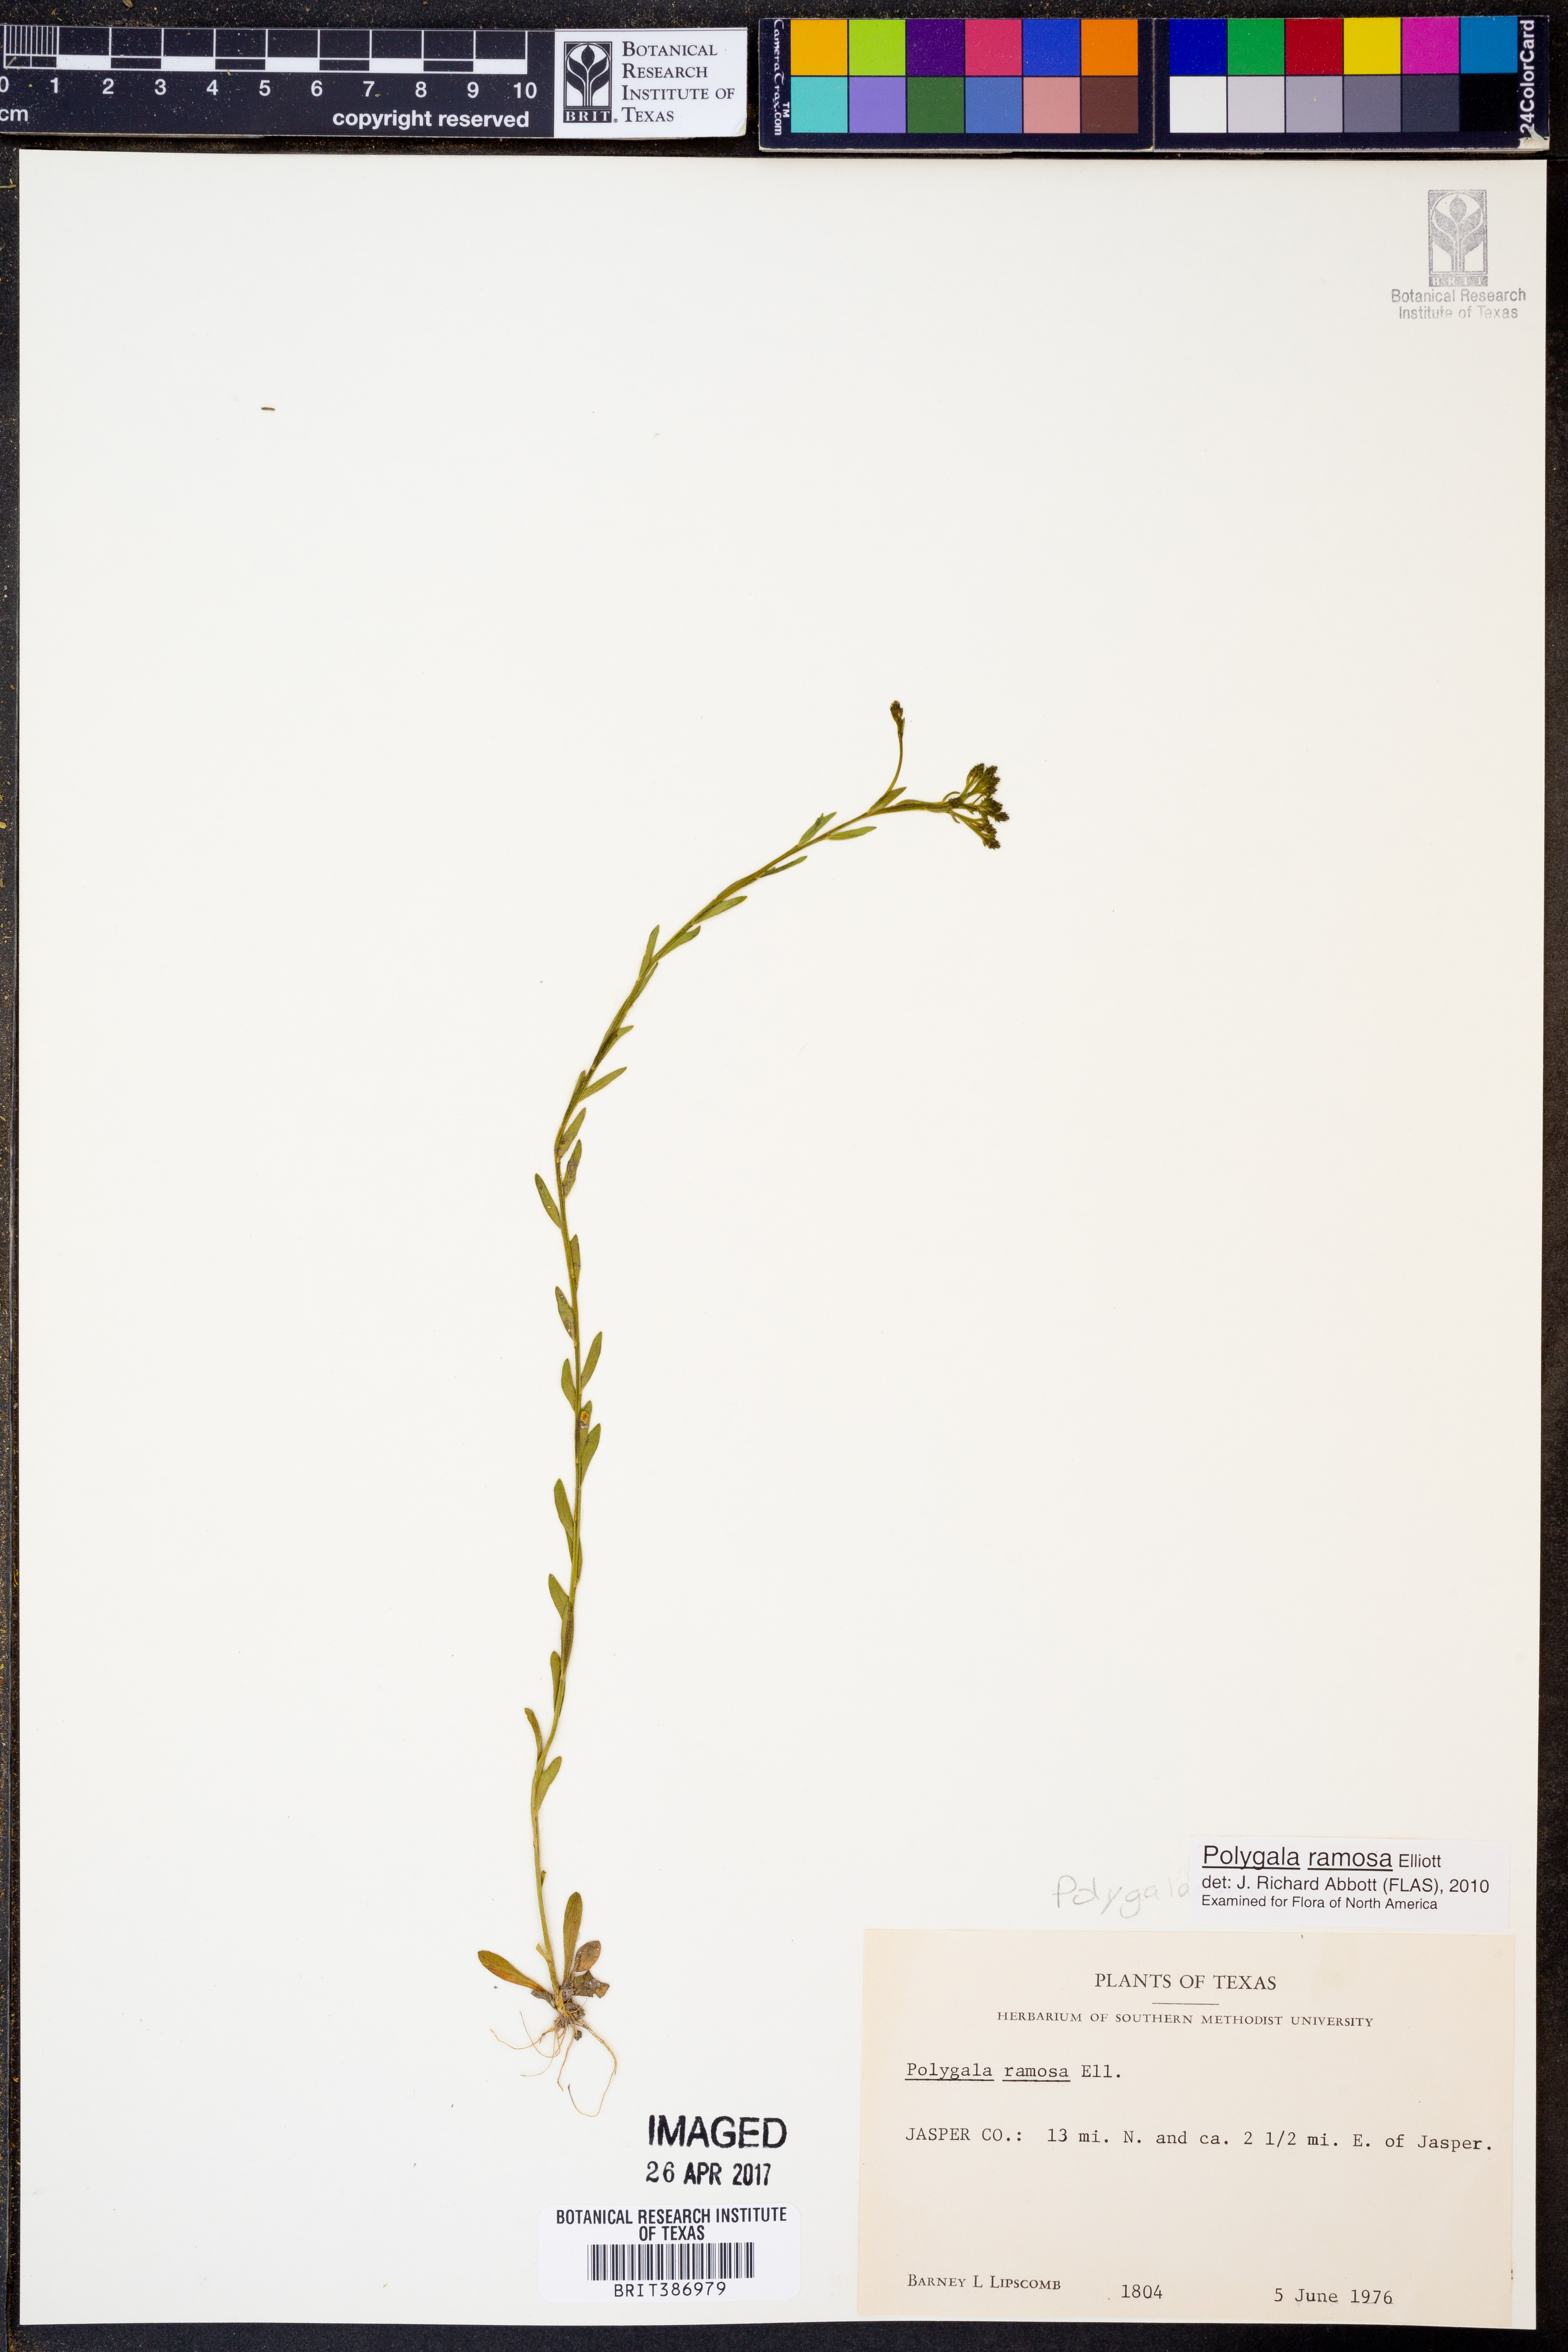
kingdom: Plantae
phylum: Tracheophyta
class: Magnoliopsida
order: Fabales
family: Polygalaceae
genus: Polygala
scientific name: Polygala ramosa
